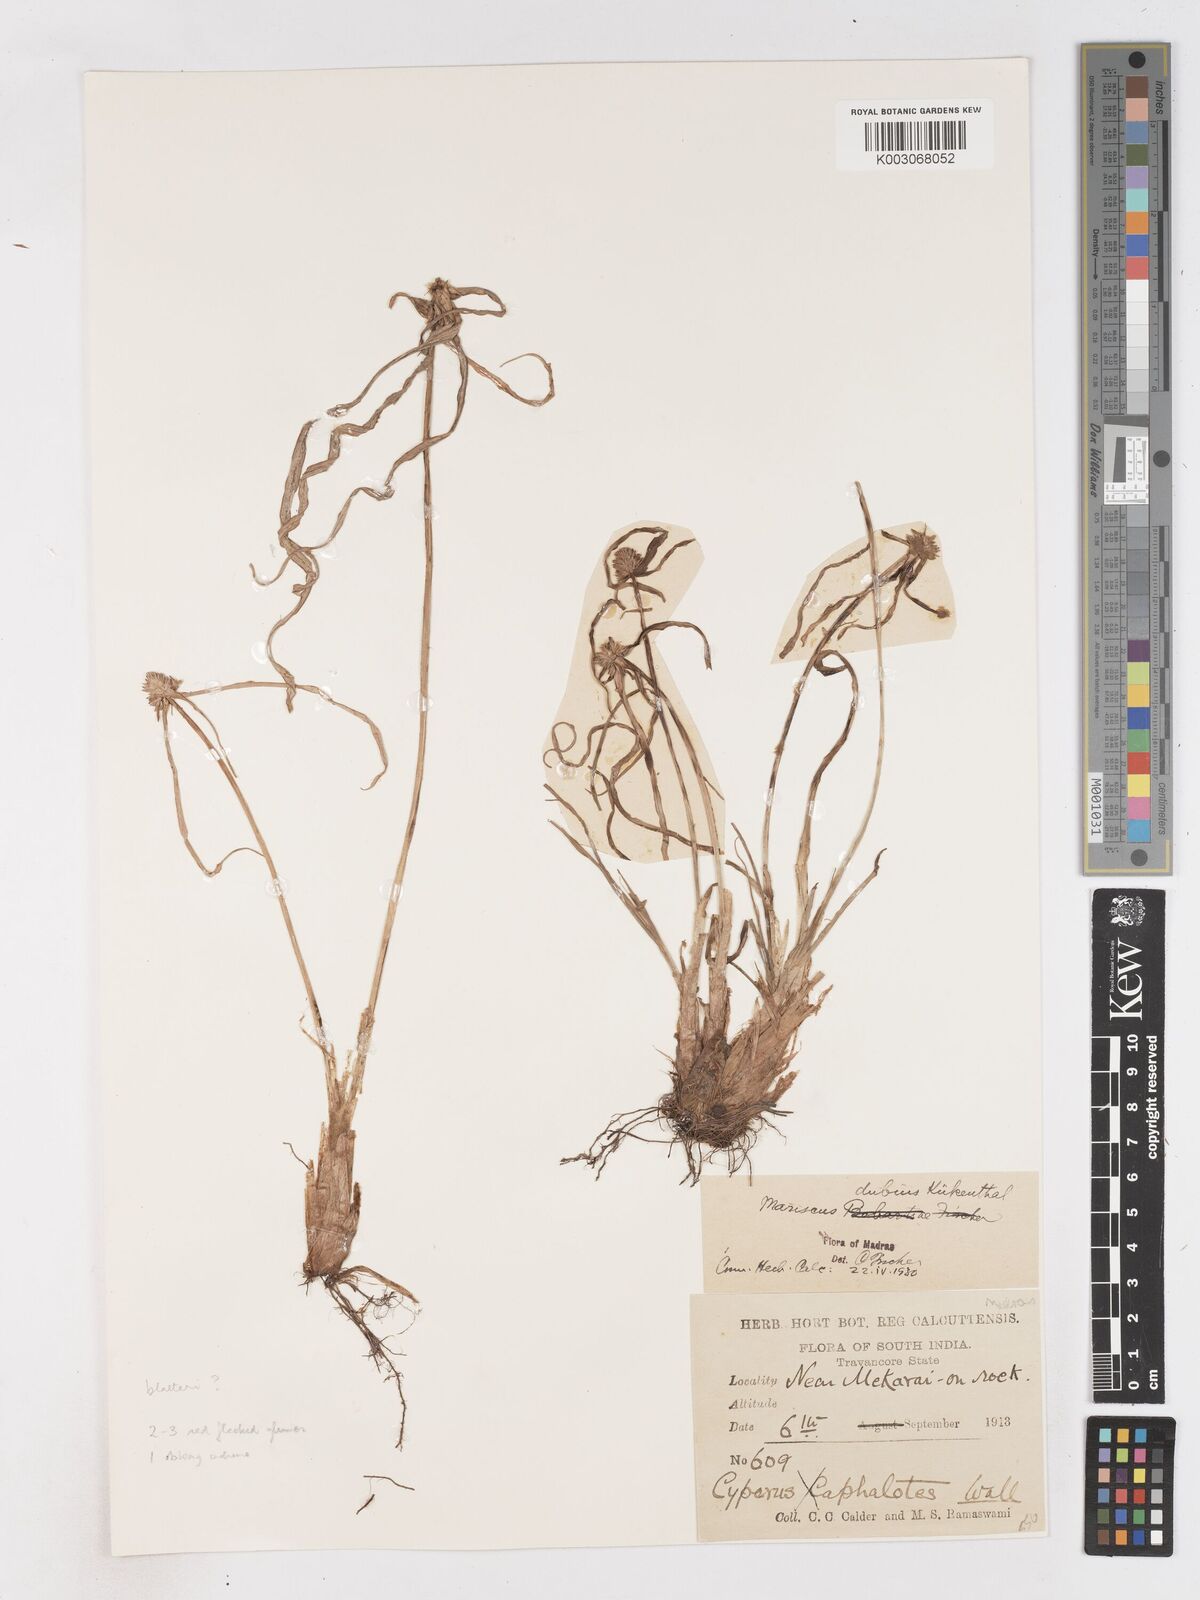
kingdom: Plantae
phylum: Tracheophyta
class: Liliopsida
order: Poales
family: Cyperaceae
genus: Cyperus
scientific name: Cyperus blatteri
